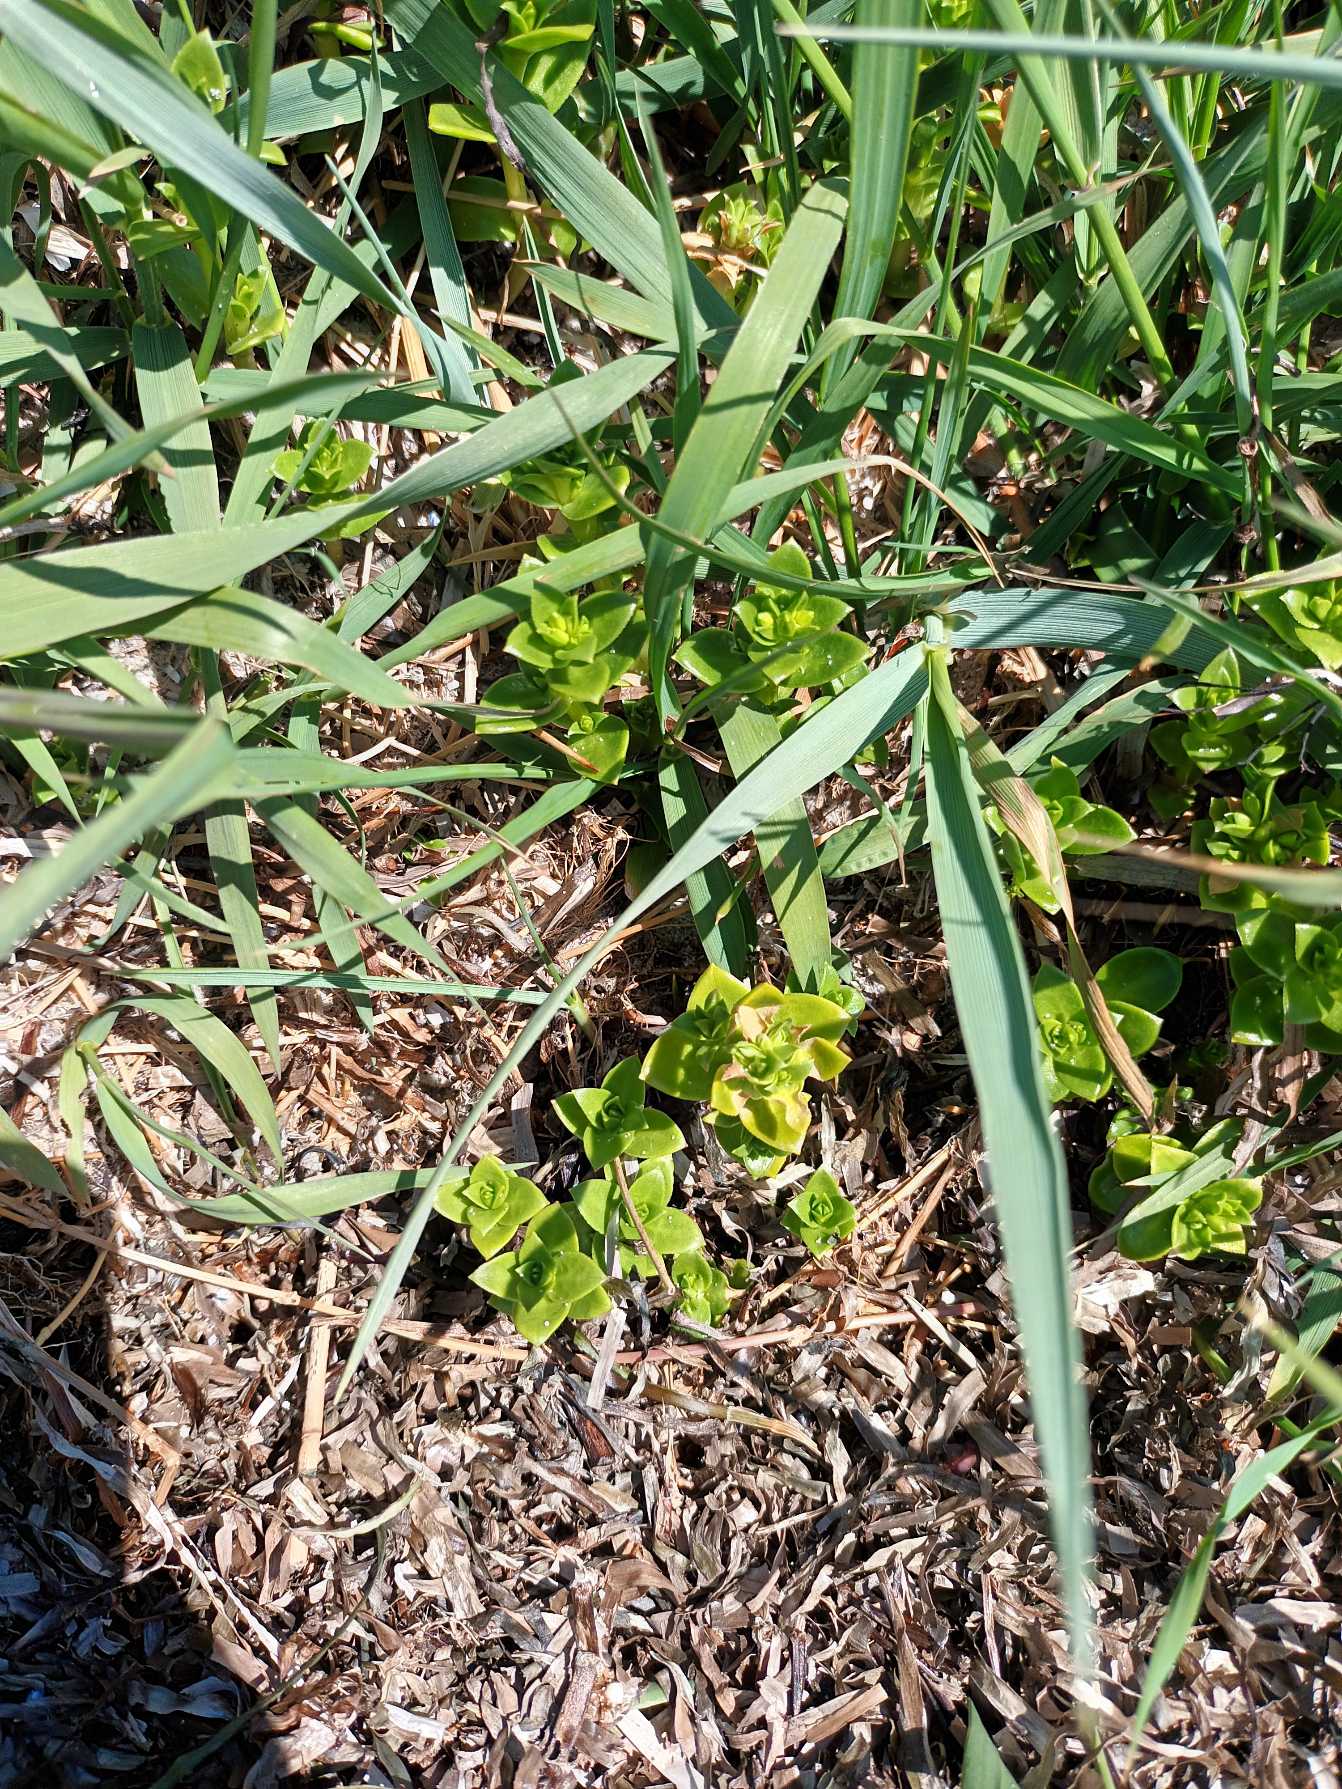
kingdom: Plantae
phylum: Tracheophyta
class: Magnoliopsida
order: Caryophyllales
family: Caryophyllaceae
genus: Honckenya
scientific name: Honckenya peploides
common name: Strandarve
